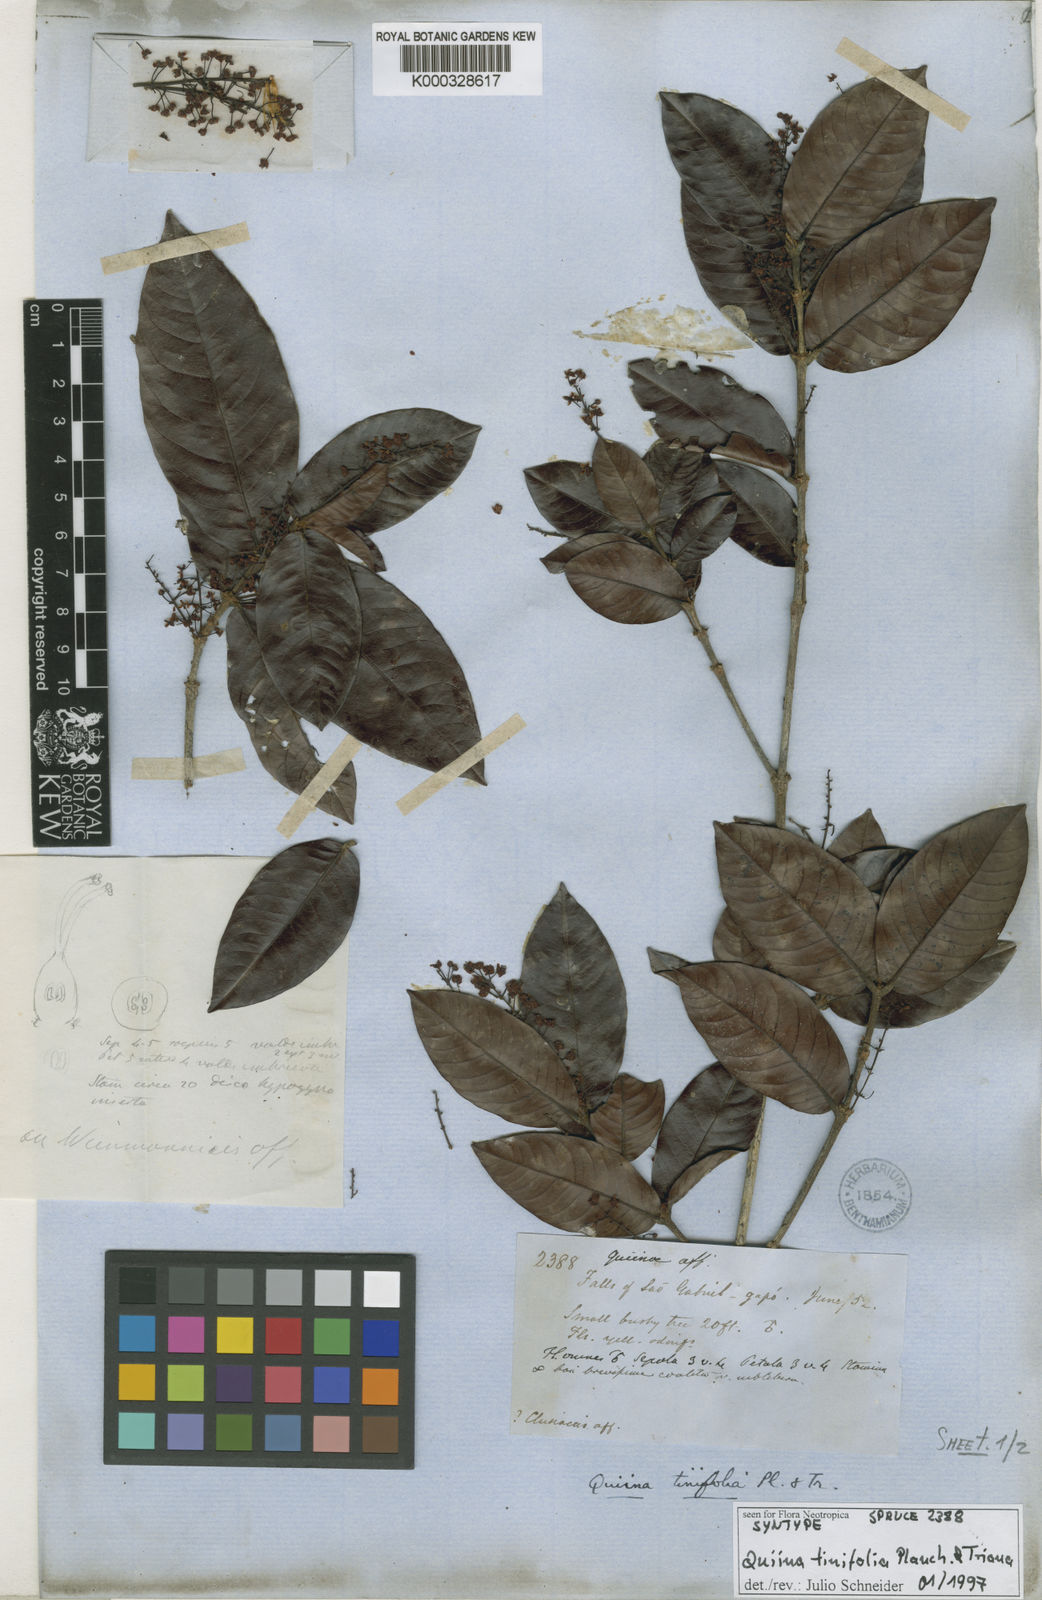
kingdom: Plantae
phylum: Tracheophyta
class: Magnoliopsida
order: Malpighiales
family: Quiinaceae
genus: Quiina
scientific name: Quiina tinifolia
